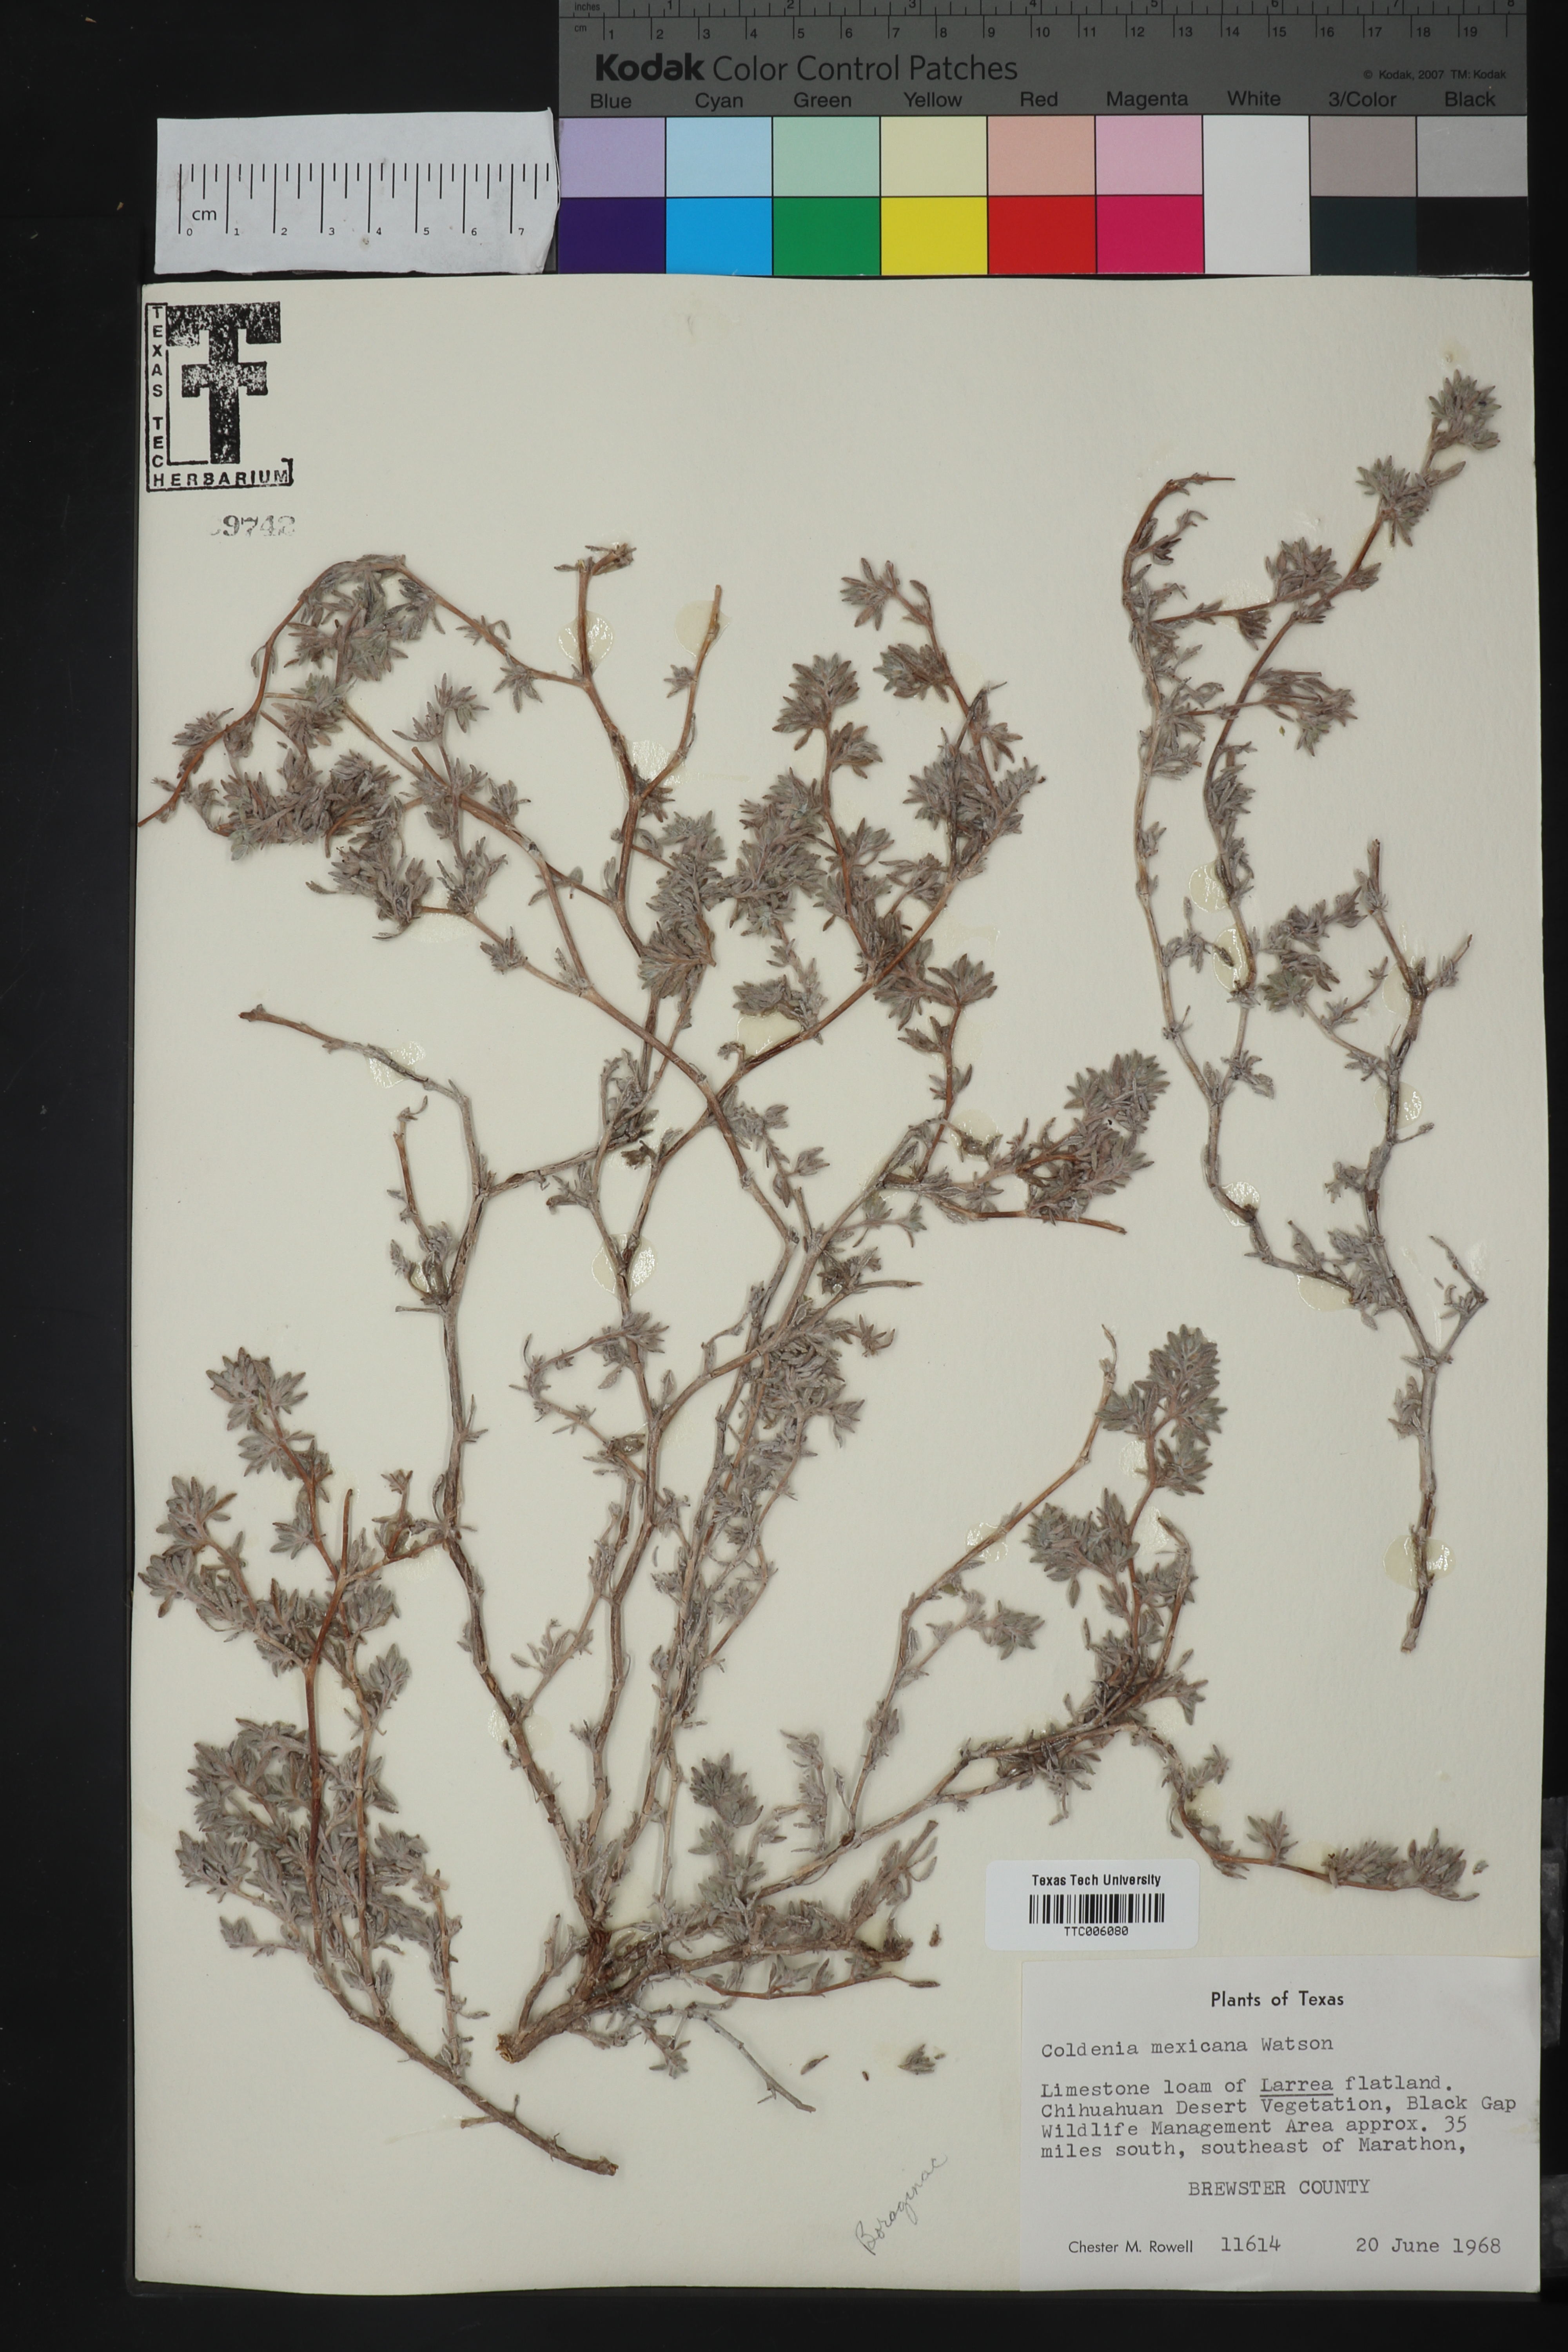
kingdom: Plantae
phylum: Tracheophyta
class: Magnoliopsida
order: Boraginales
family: Ehretiaceae
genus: Tiquilia
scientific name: Tiquilia mexicana
